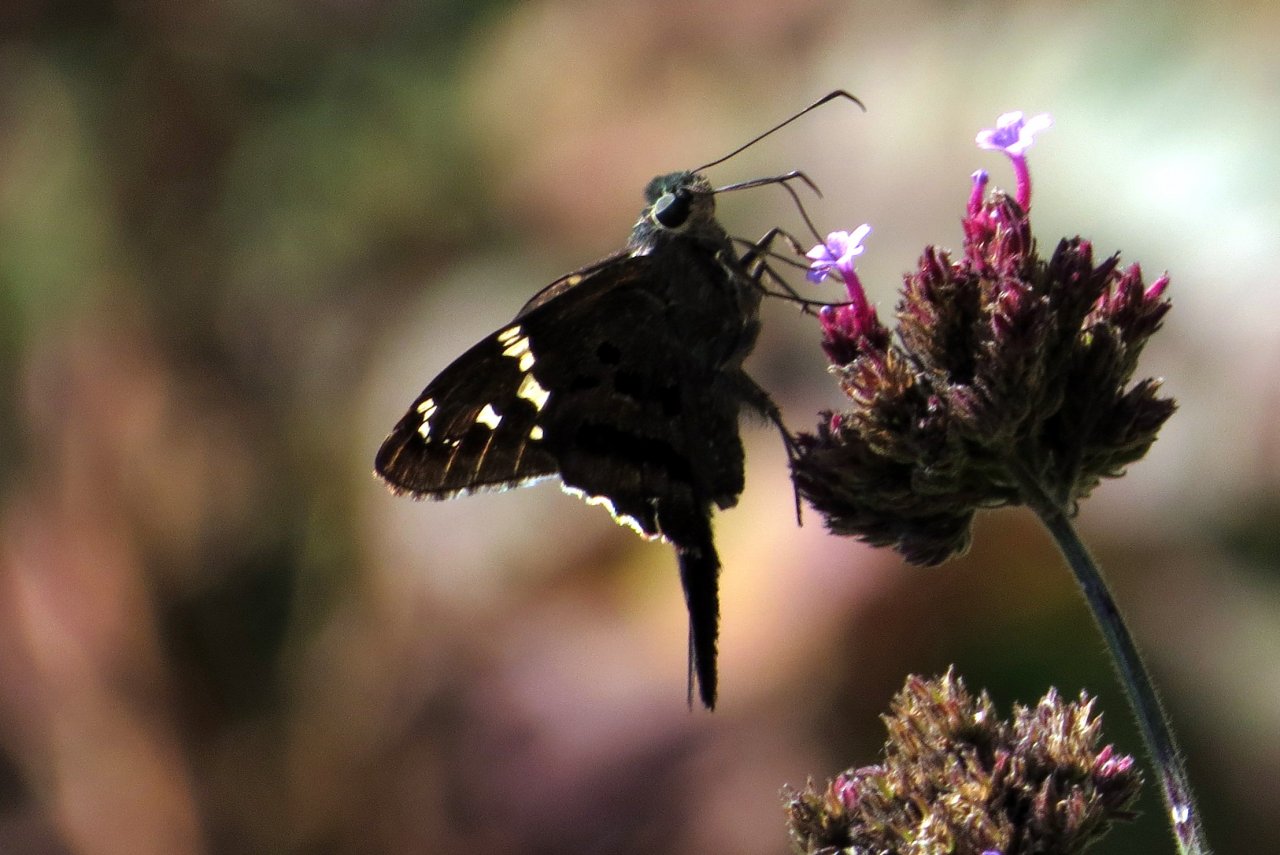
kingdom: Animalia
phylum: Arthropoda
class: Insecta
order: Lepidoptera
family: Hesperiidae
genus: Urbanus
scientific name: Urbanus proteus
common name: Long-tailed Skipper
